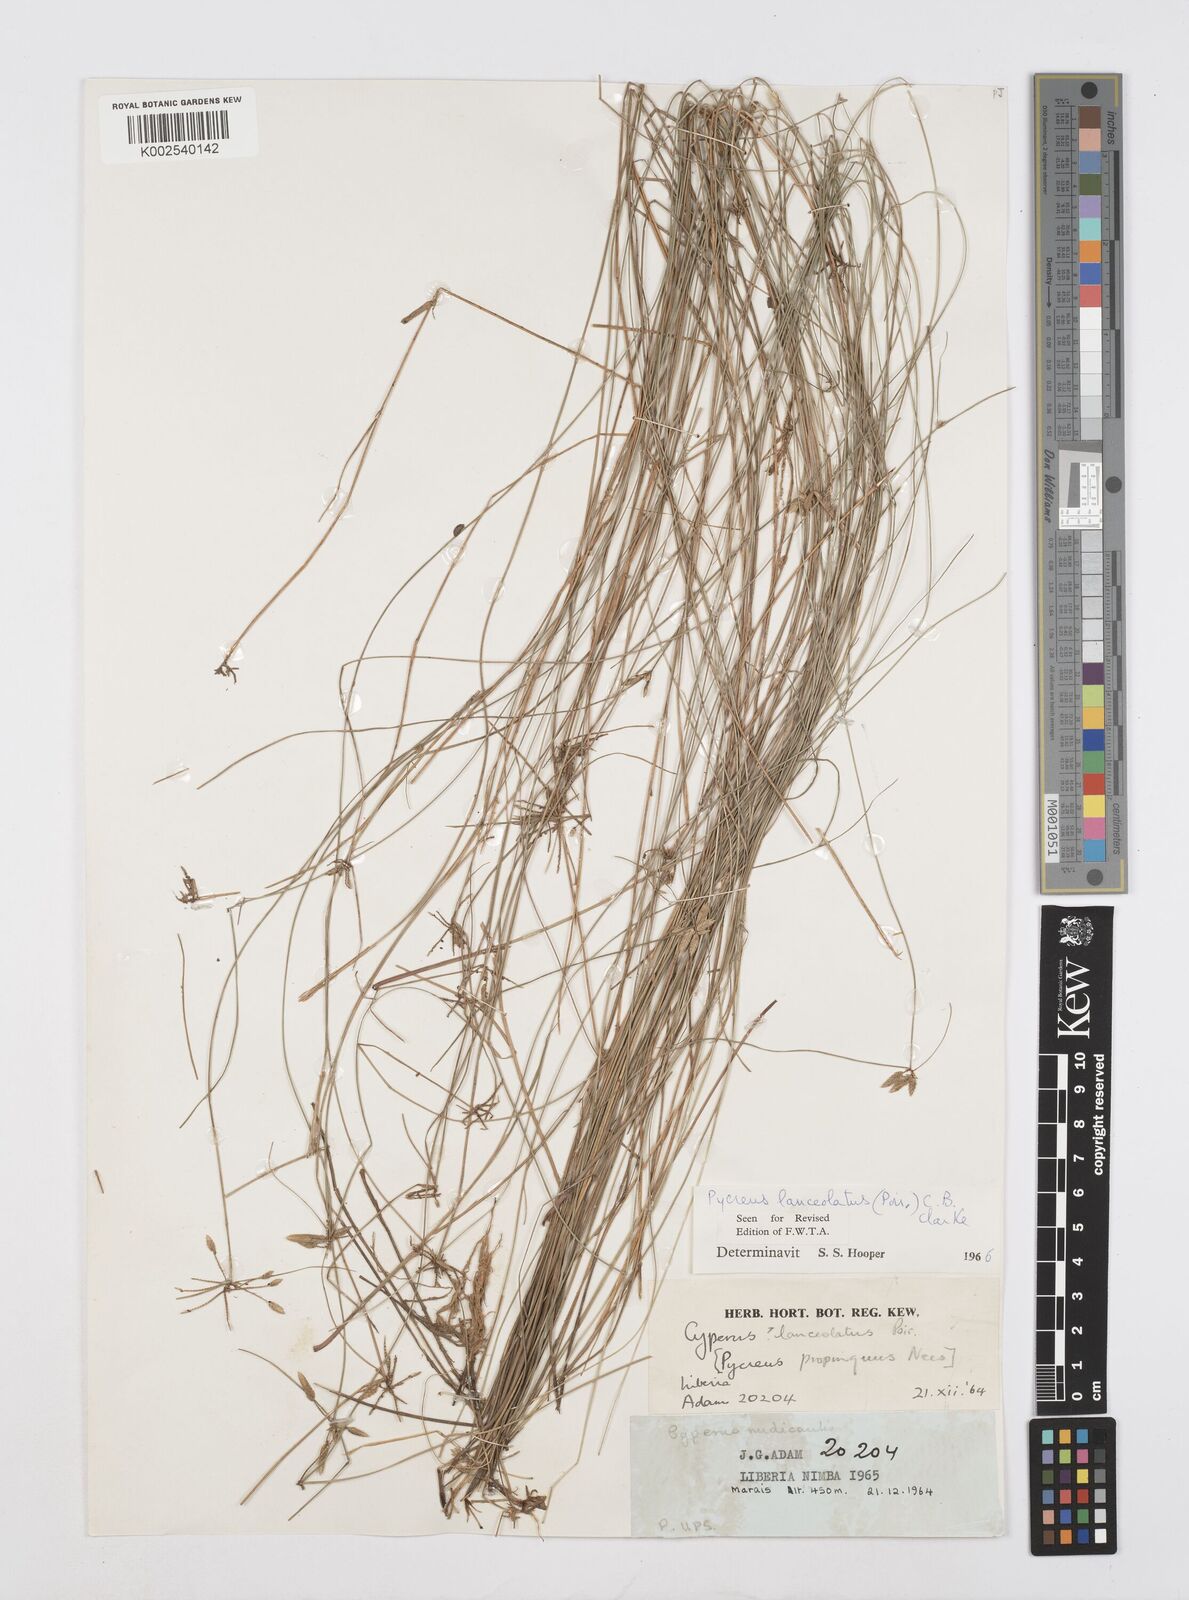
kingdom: Plantae
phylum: Tracheophyta
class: Liliopsida
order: Poales
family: Cyperaceae
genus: Cyperus
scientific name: Cyperus
